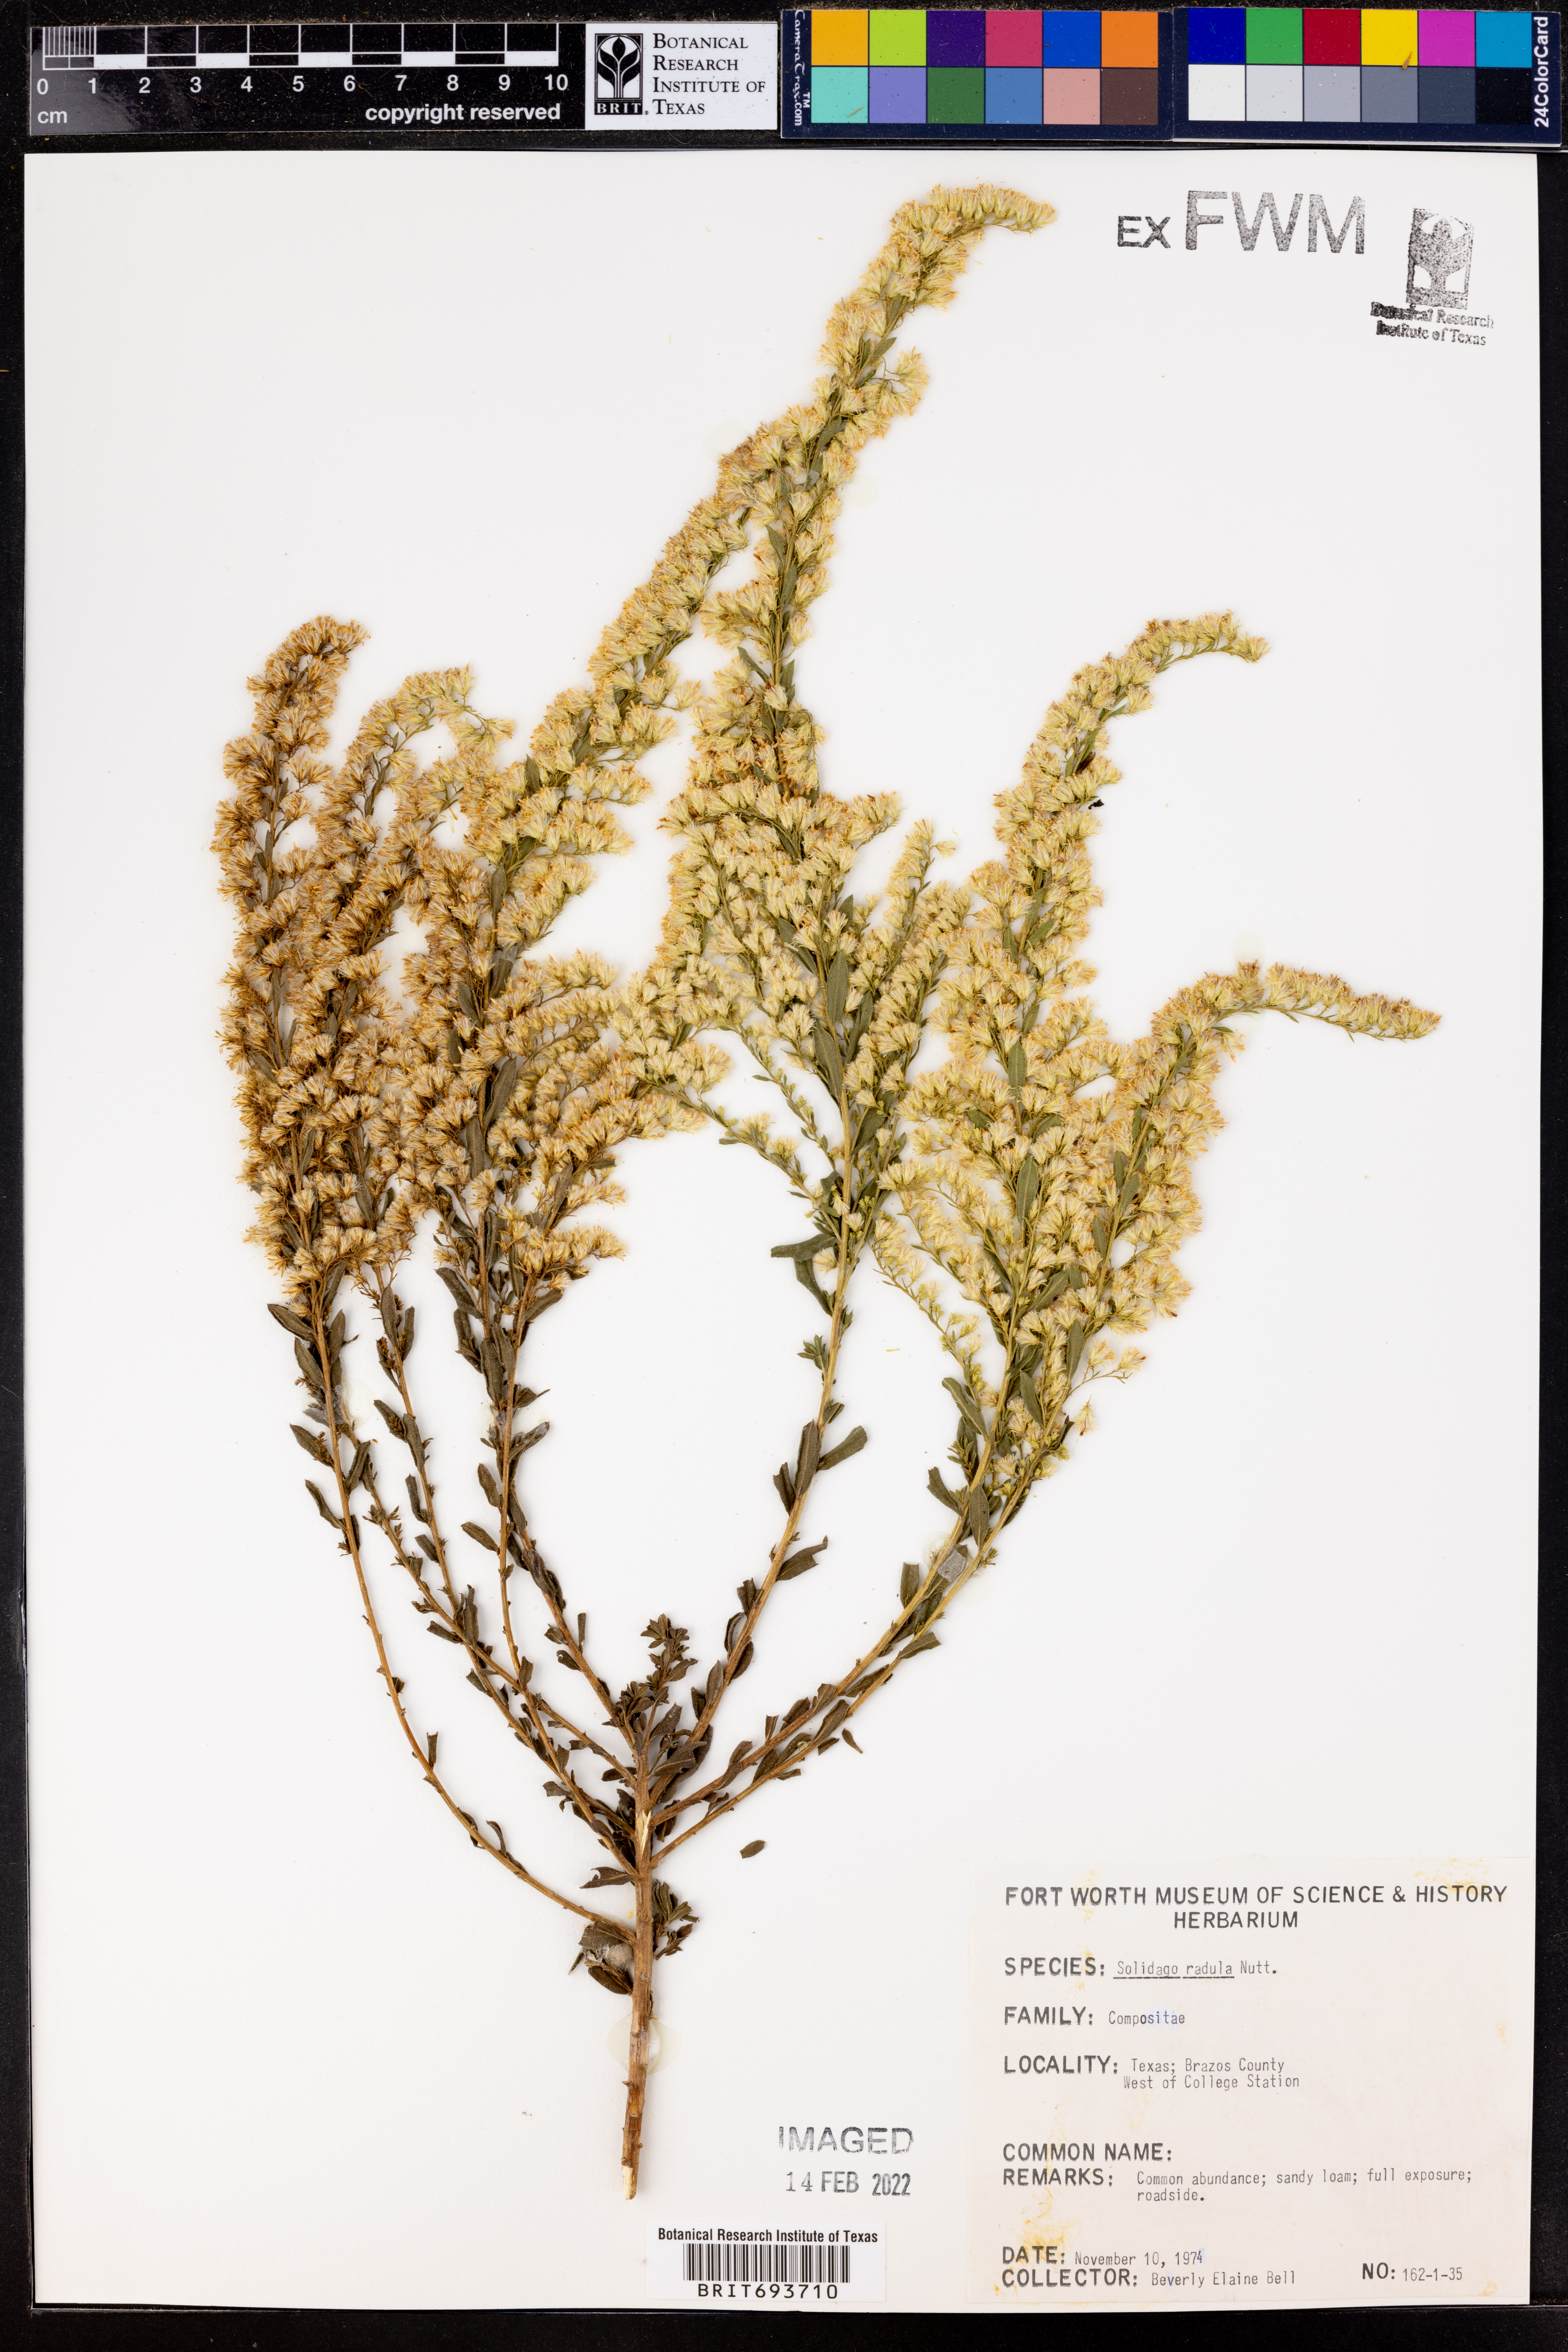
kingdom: Plantae
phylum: Tracheophyta
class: Magnoliopsida
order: Asterales
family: Asteraceae
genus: Solidago
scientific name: Solidago radula
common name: Western rough goldenrod
